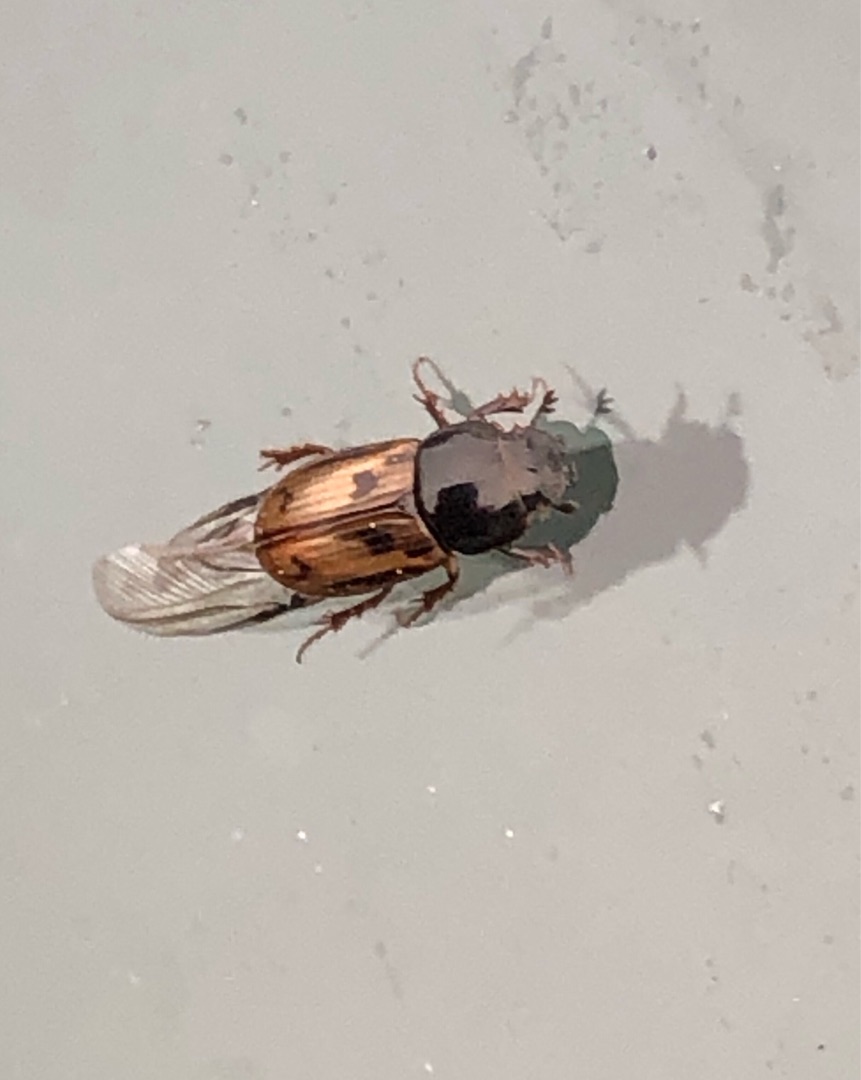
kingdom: Animalia
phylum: Arthropoda
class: Insecta
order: Coleoptera
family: Scarabaeidae
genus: Chilothorax
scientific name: Chilothorax distinctus
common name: Tidlig møgbille
